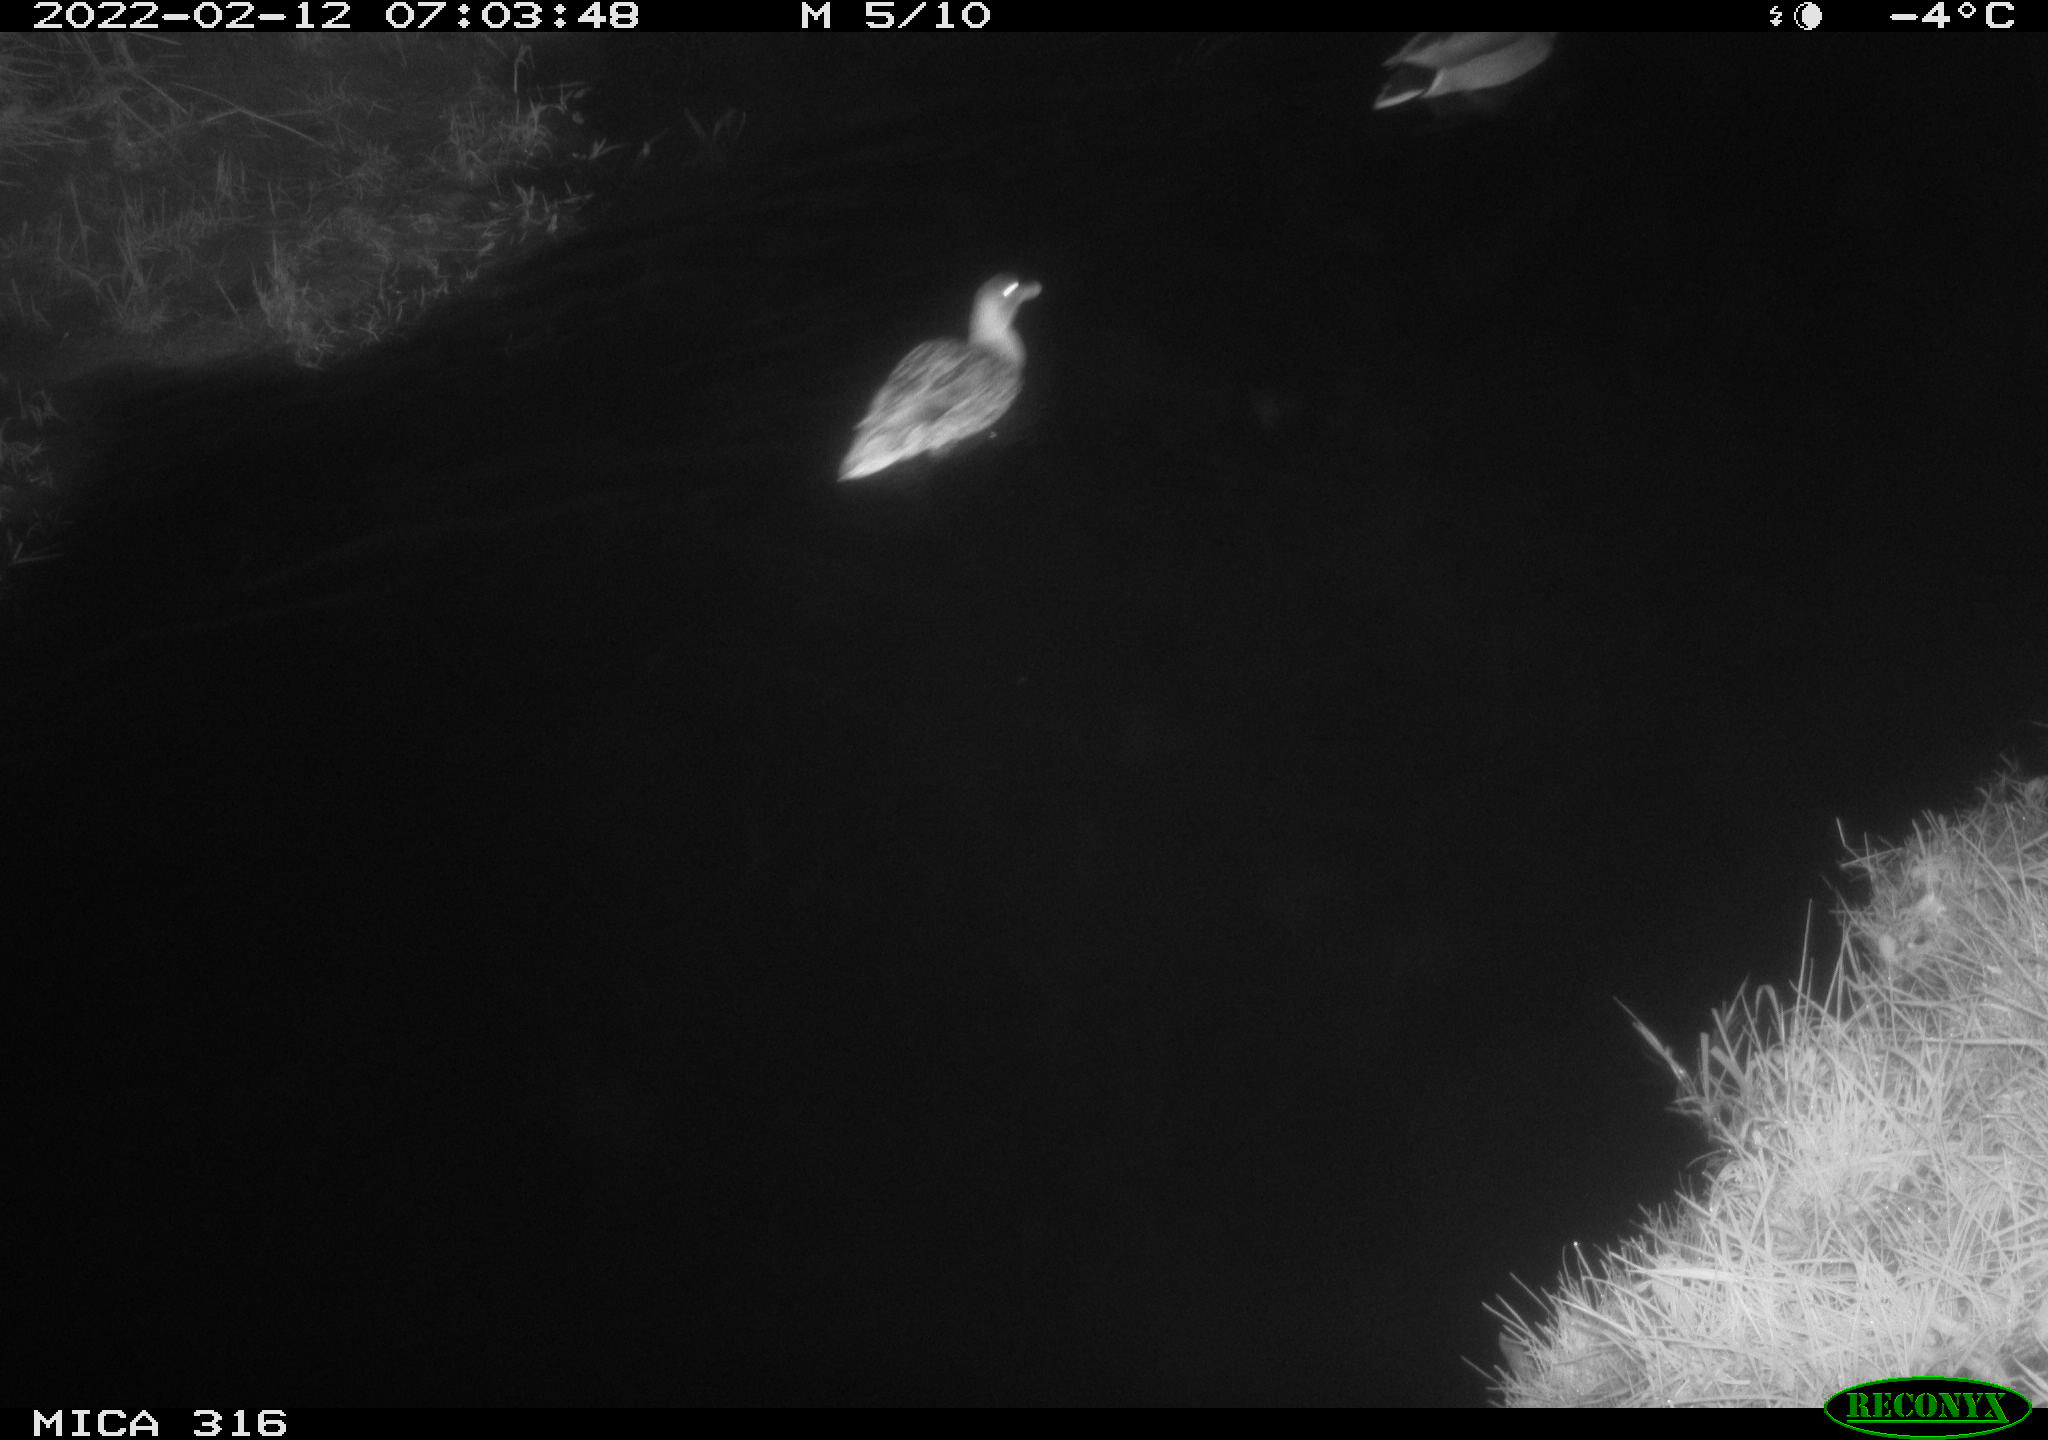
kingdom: Animalia
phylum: Chordata
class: Aves
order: Anseriformes
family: Anatidae
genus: Anas
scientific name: Anas platyrhynchos
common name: Mallard
